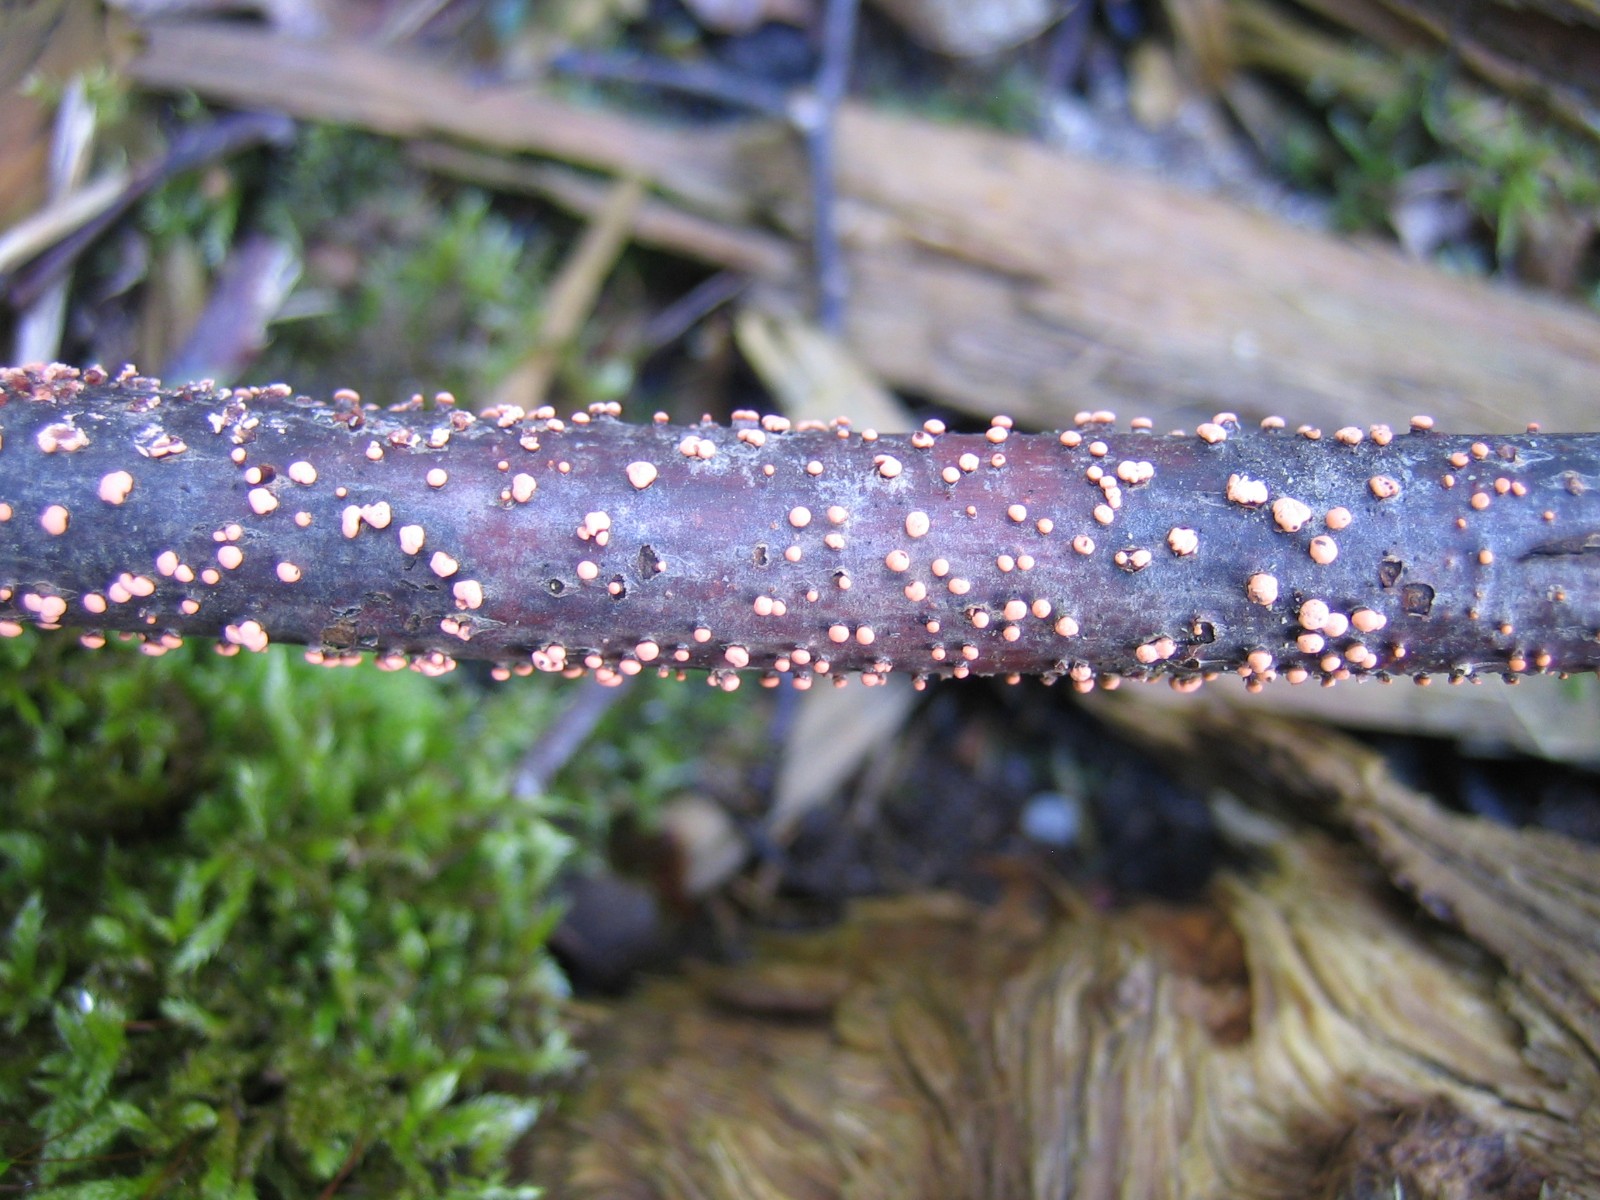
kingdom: Fungi
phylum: Ascomycota
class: Sordariomycetes
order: Hypocreales
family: Nectriaceae
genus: Nectria
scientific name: Nectria cinnabarina
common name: almindelig cinnobersvamp
